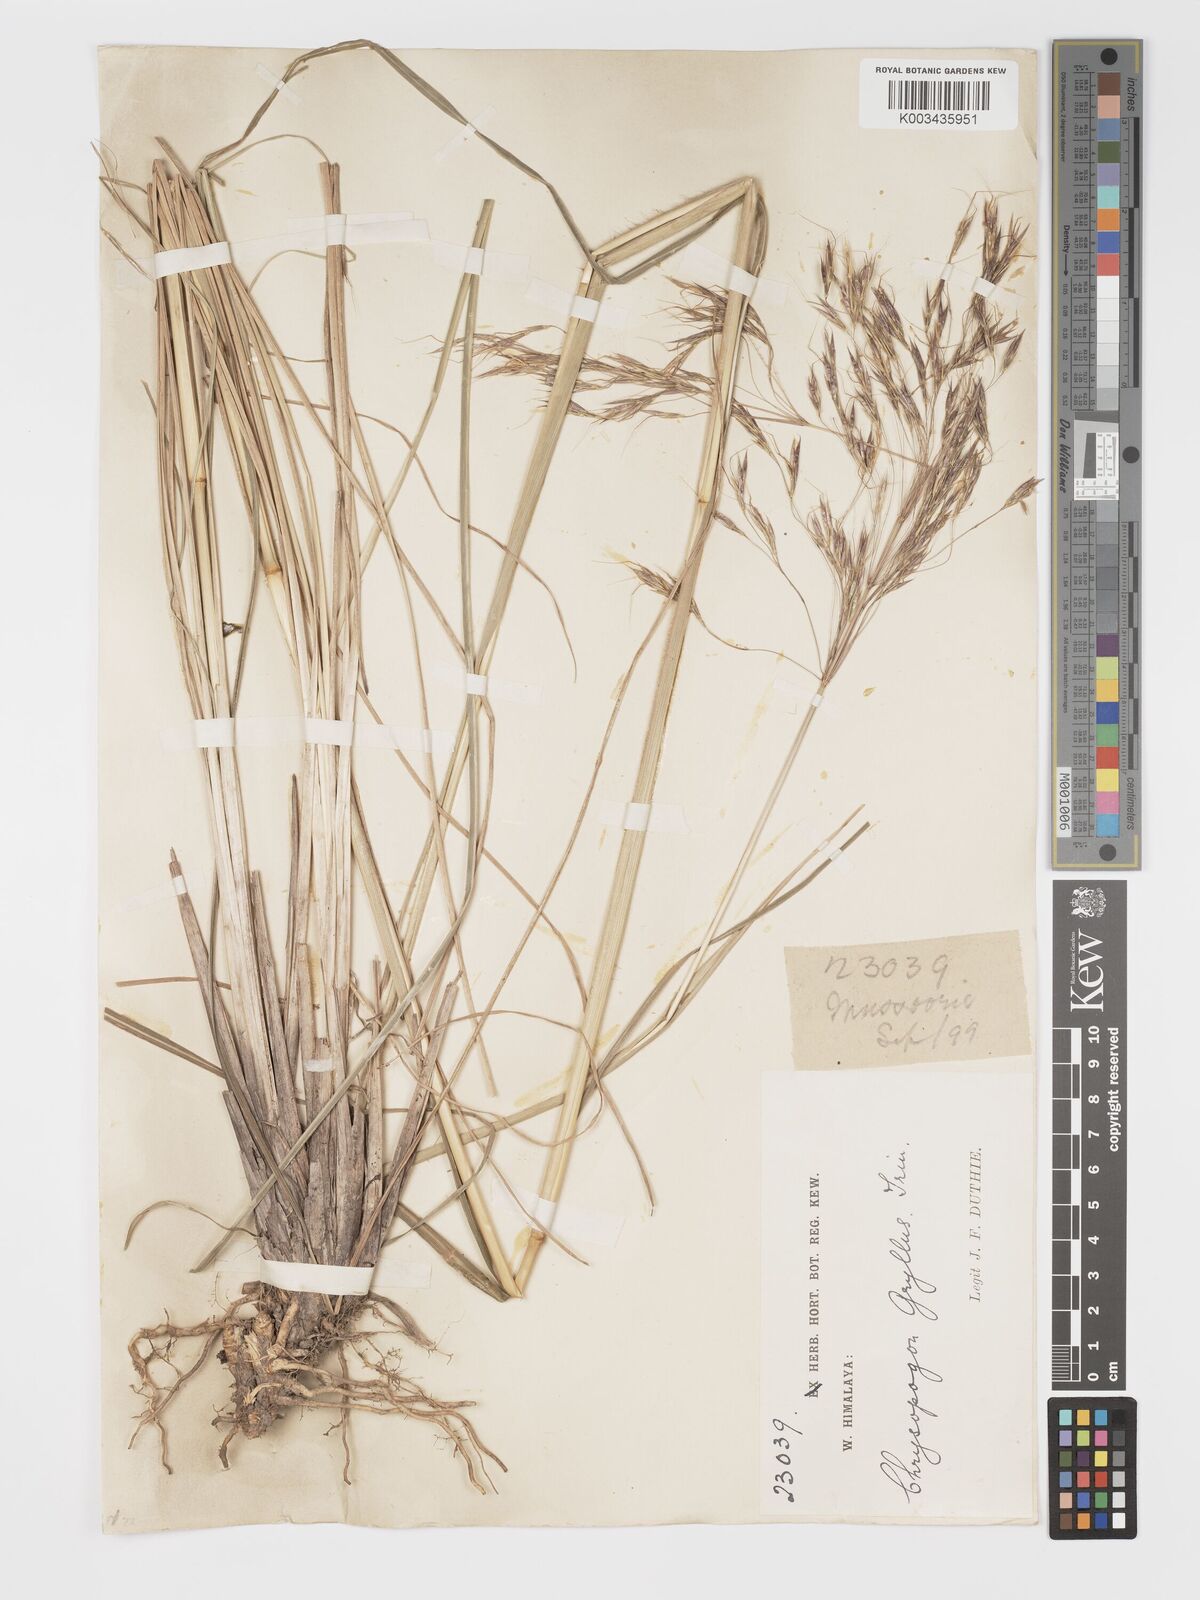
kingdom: Plantae
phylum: Tracheophyta
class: Liliopsida
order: Poales
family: Poaceae
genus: Chrysopogon
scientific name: Chrysopogon gryllus
